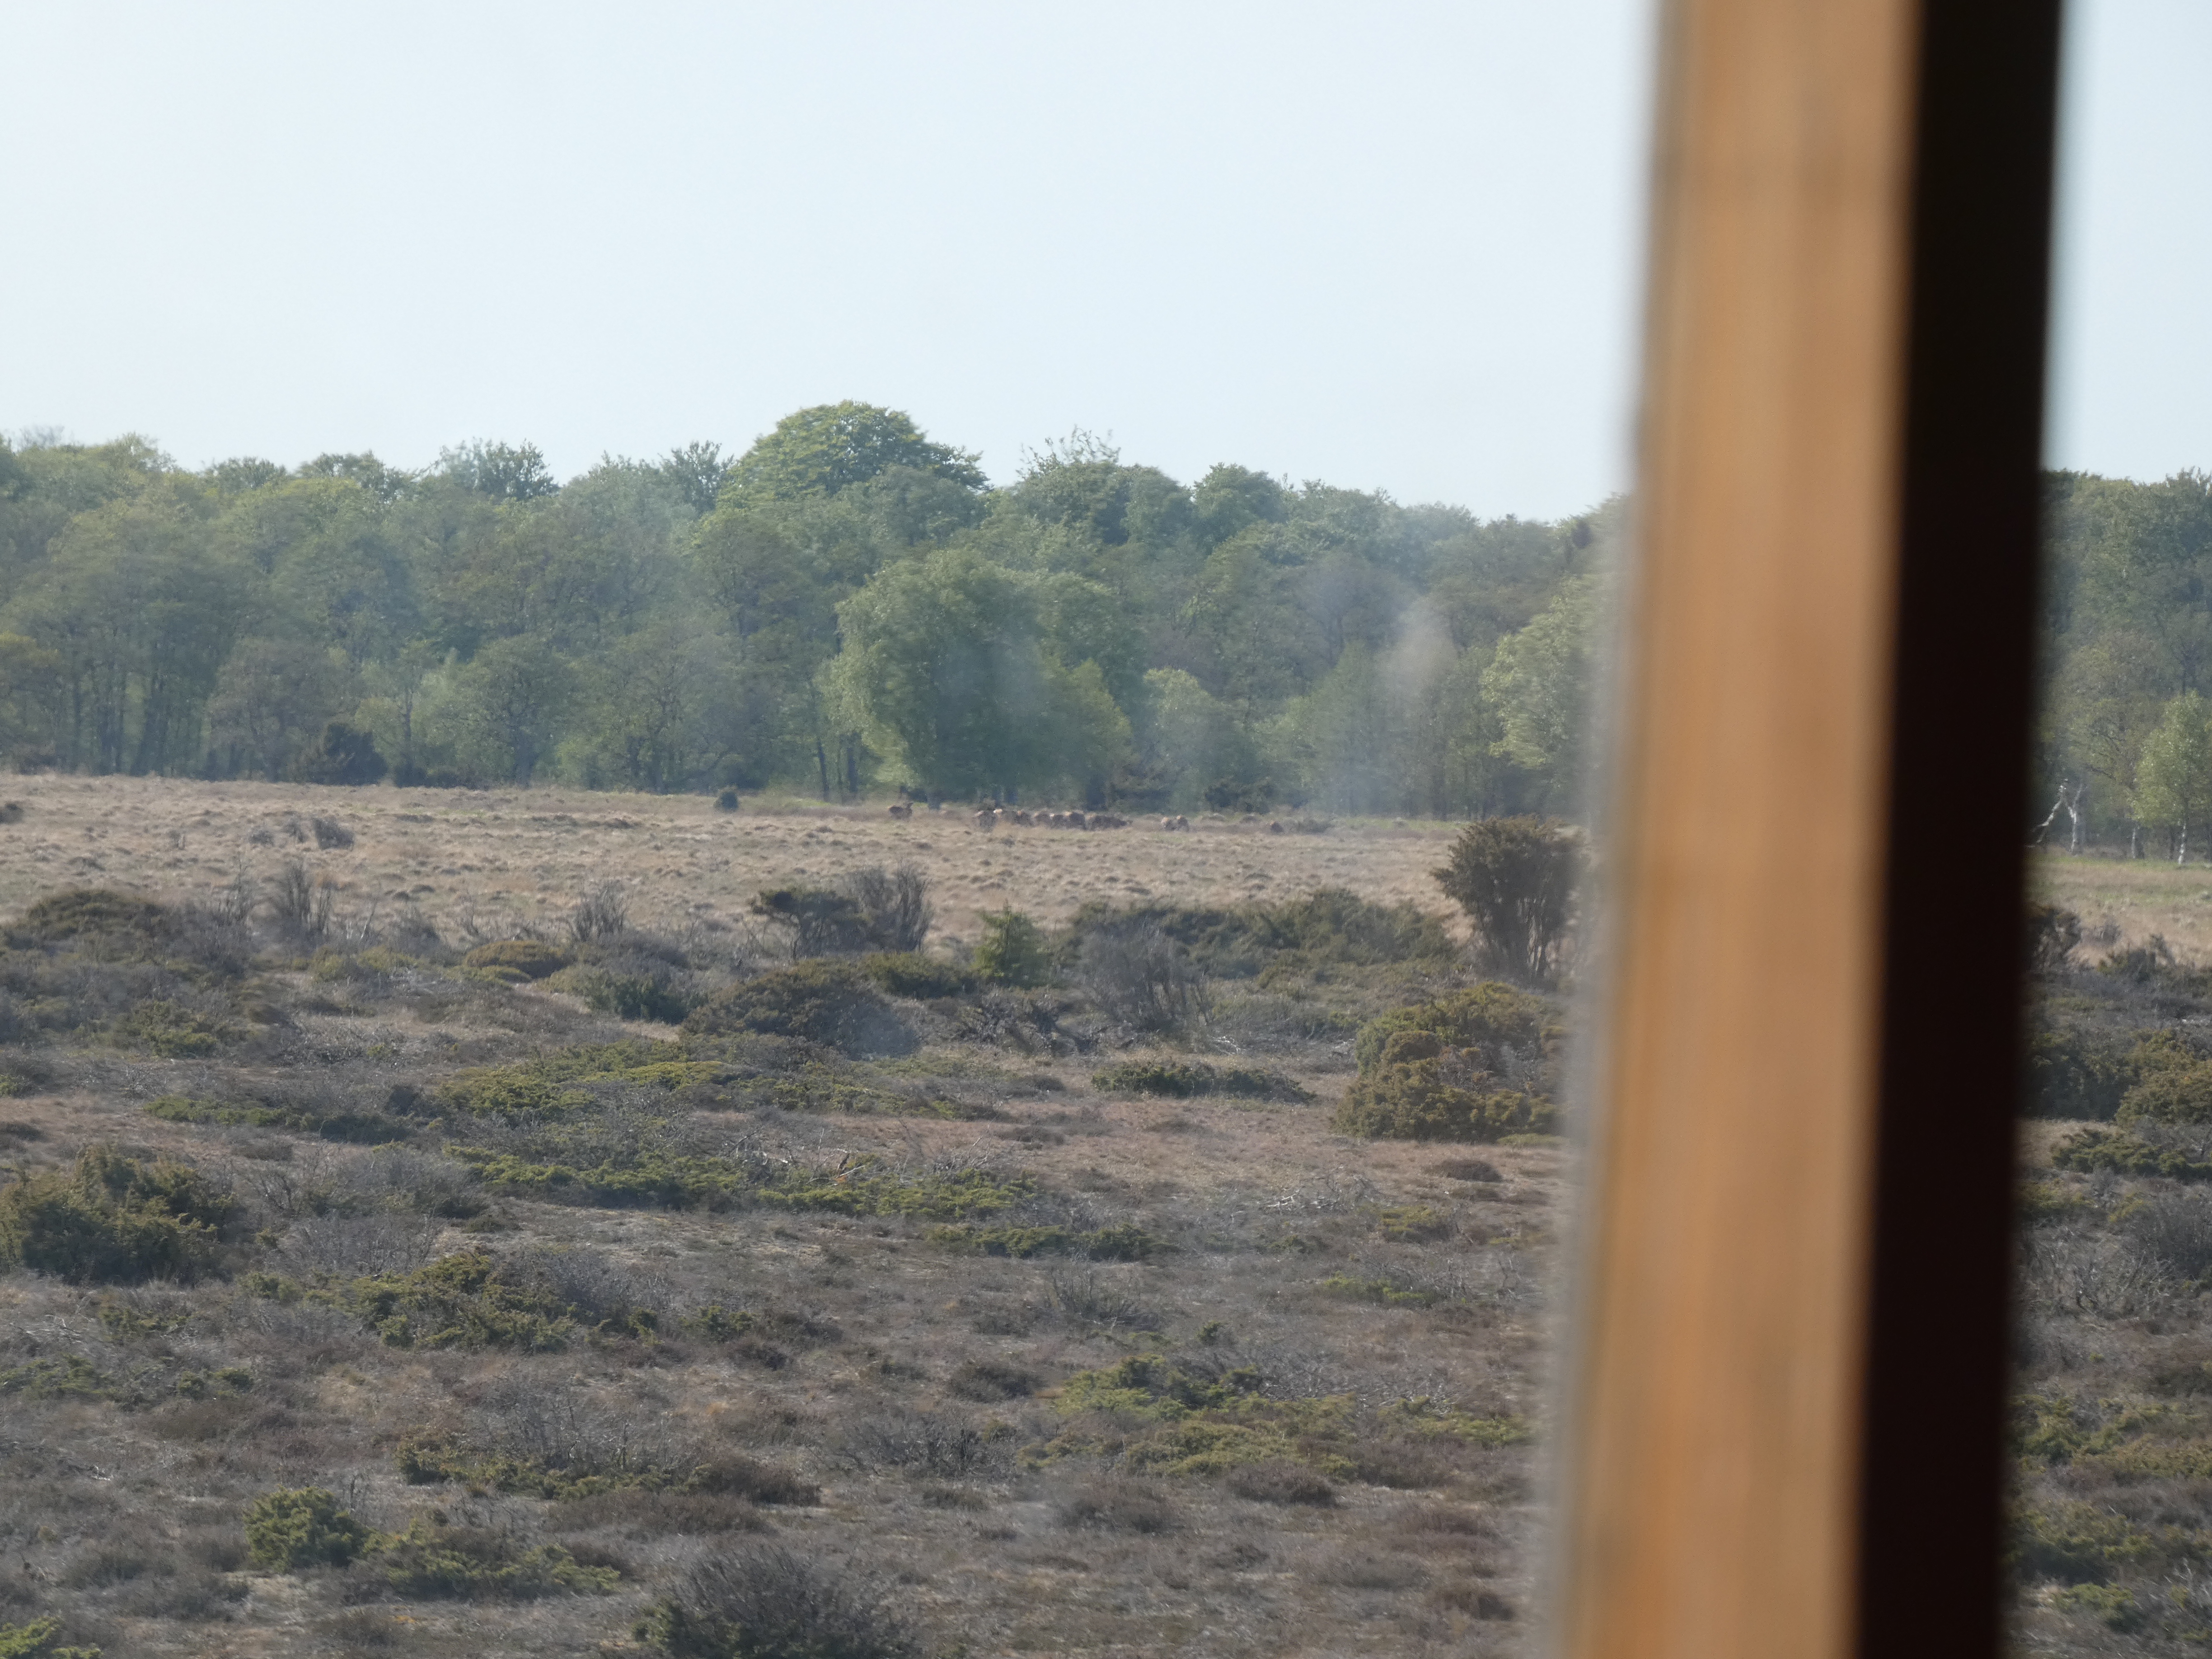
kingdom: Animalia
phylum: Chordata
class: Mammalia
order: Artiodactyla
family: Cervidae
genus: Cervus
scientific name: Cervus elaphus
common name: Krondyr
